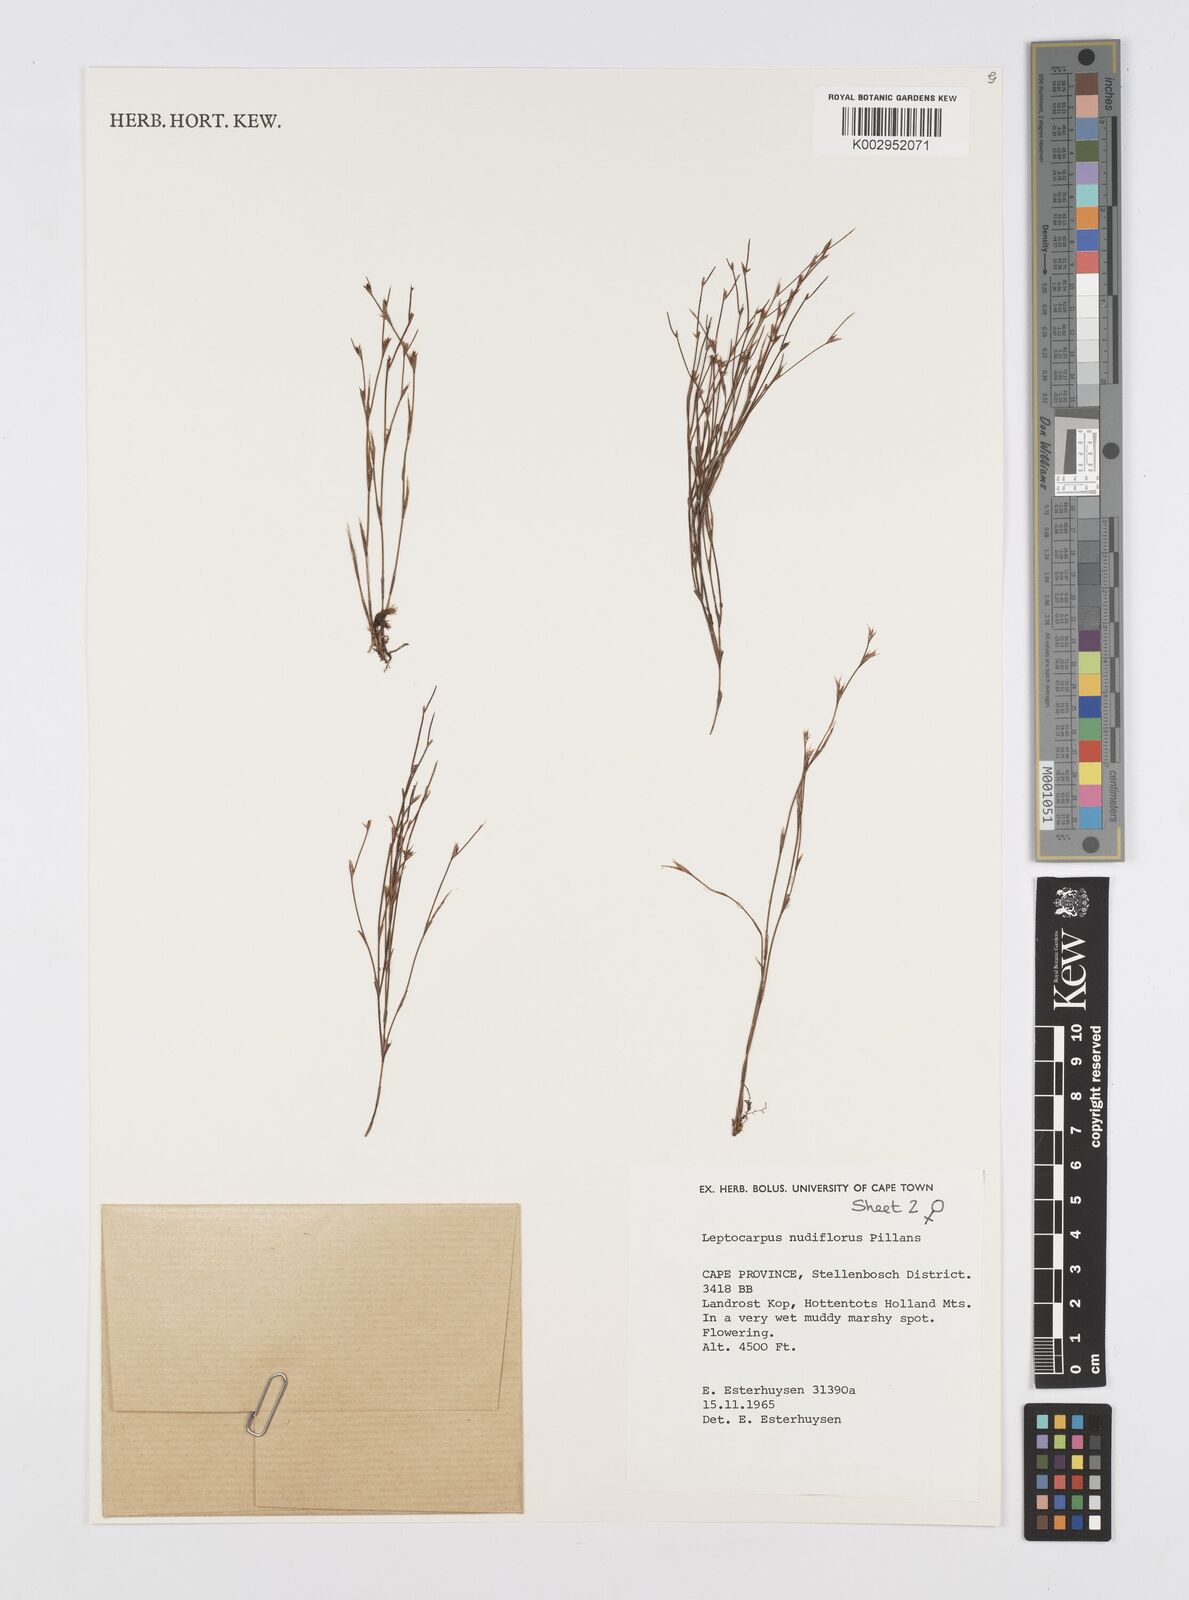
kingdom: Plantae
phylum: Tracheophyta
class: Liliopsida
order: Poales
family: Restionaceae
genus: Restio
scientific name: Restio nudiflorus
